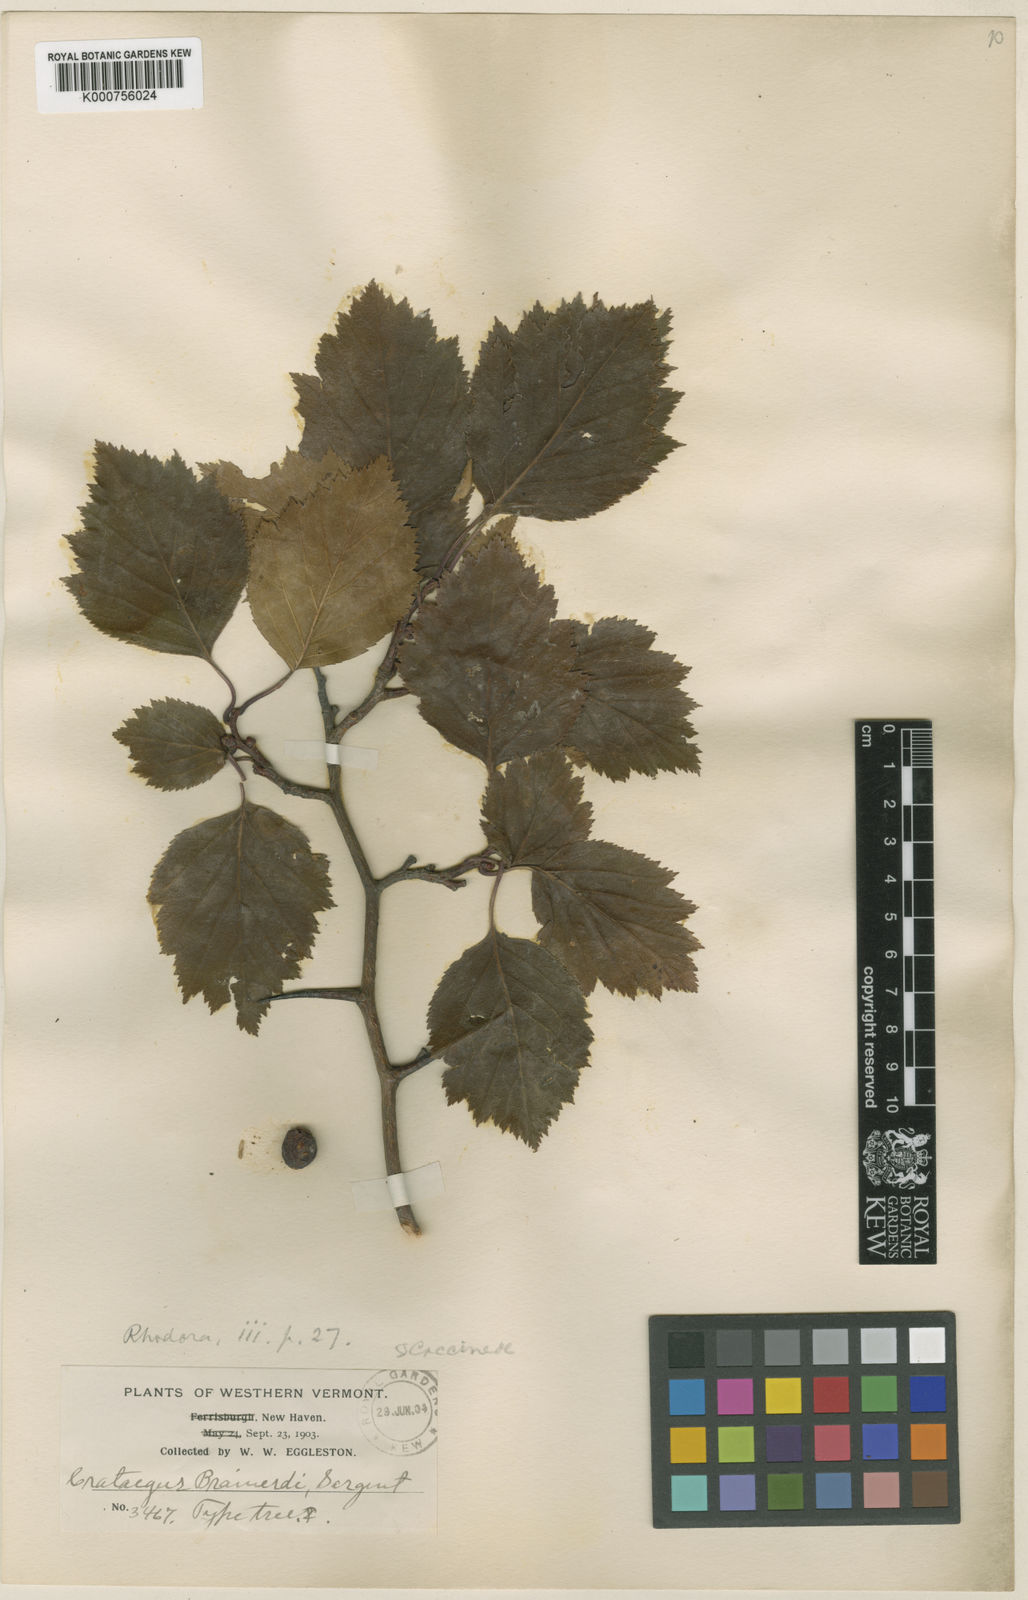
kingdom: Plantae
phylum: Tracheophyta
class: Magnoliopsida
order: Rosales
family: Rosaceae
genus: Crataegus
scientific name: Crataegus scabrida
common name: Rough hawthorn
